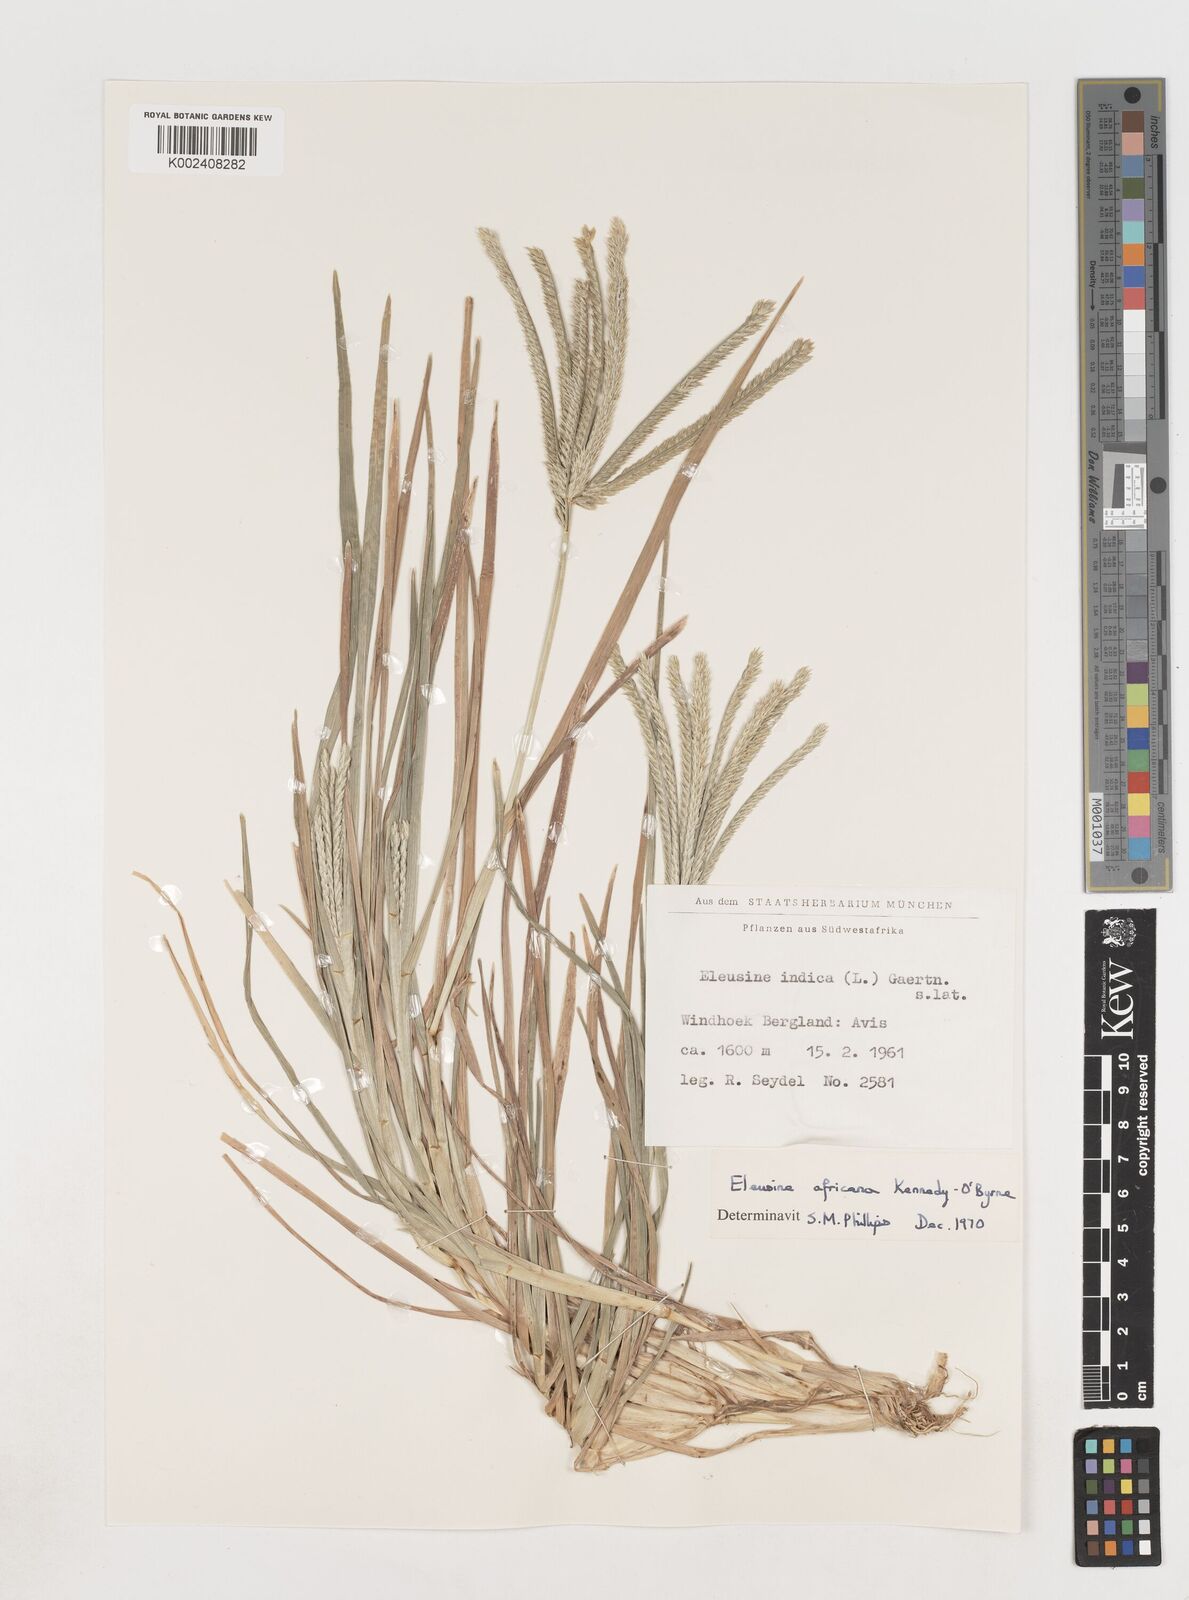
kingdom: Plantae
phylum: Tracheophyta
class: Liliopsida
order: Poales
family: Poaceae
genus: Eleusine
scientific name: Eleusine africana
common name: Wild african finger millet
